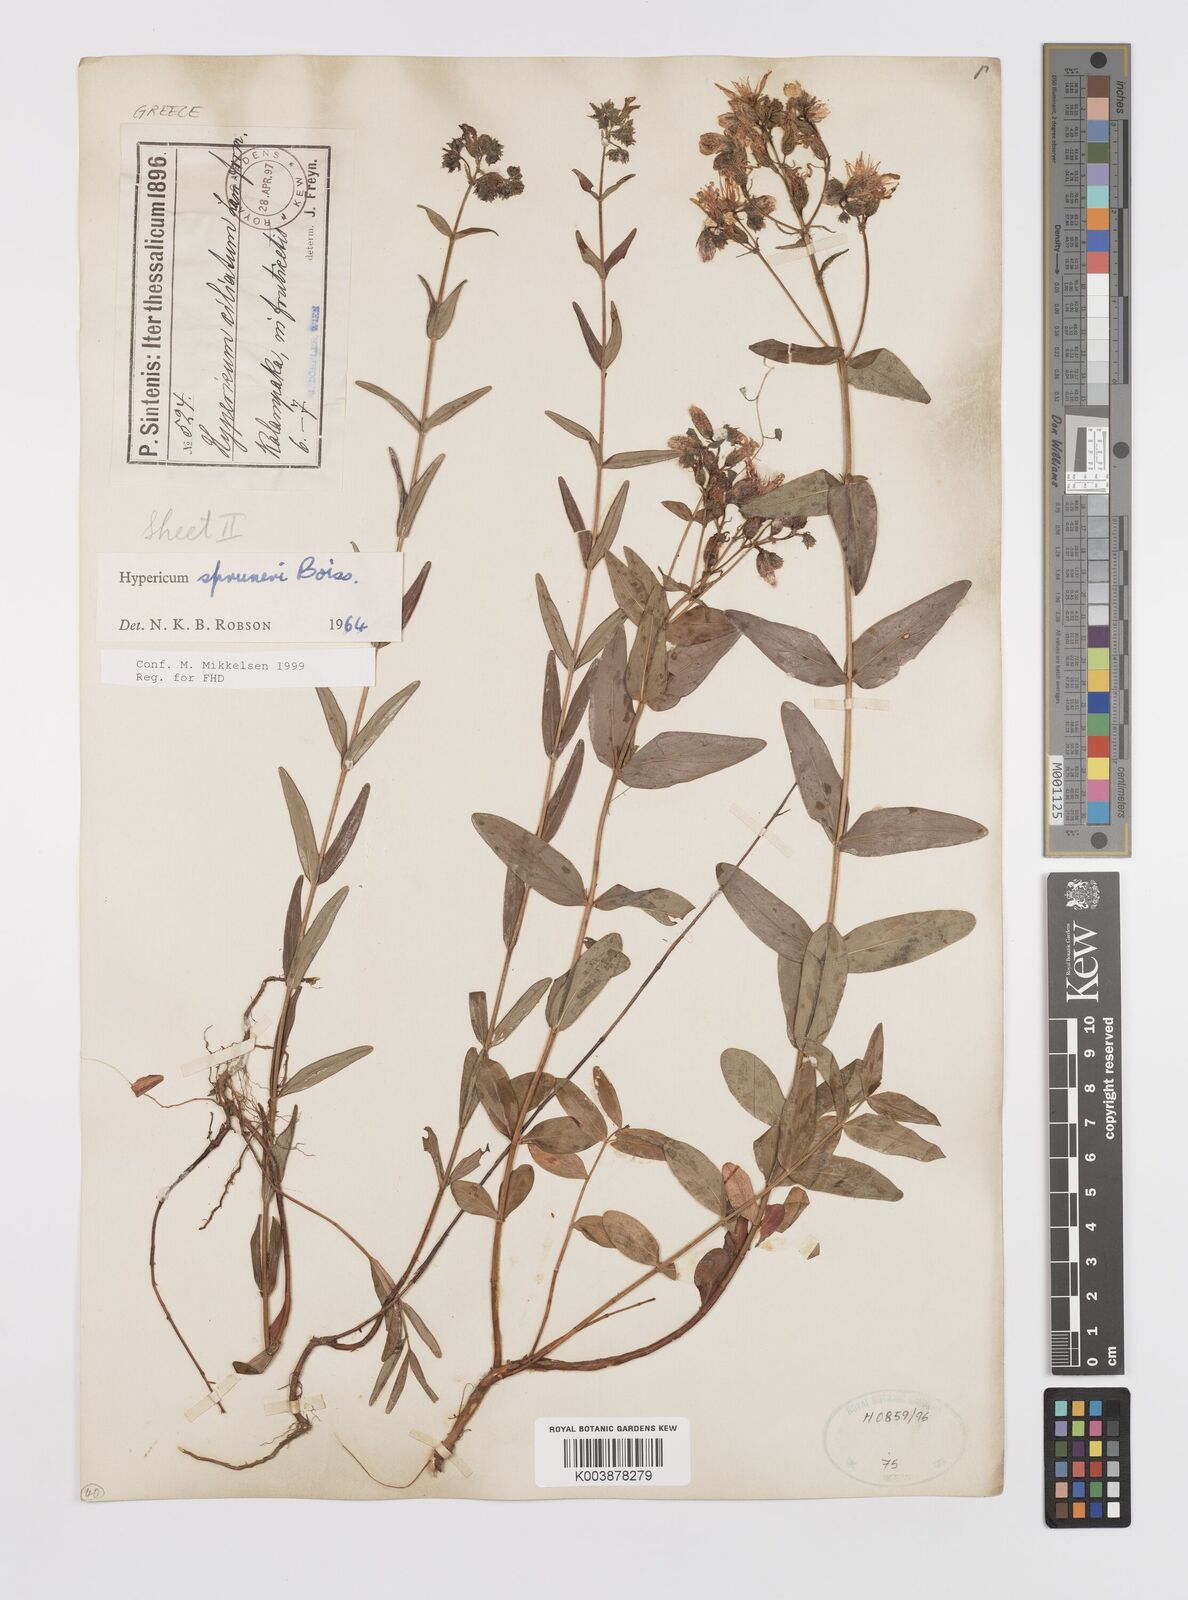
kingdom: Plantae
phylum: Tracheophyta
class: Magnoliopsida
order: Malpighiales
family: Hypericaceae
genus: Hypericum
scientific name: Hypericum spruneri
